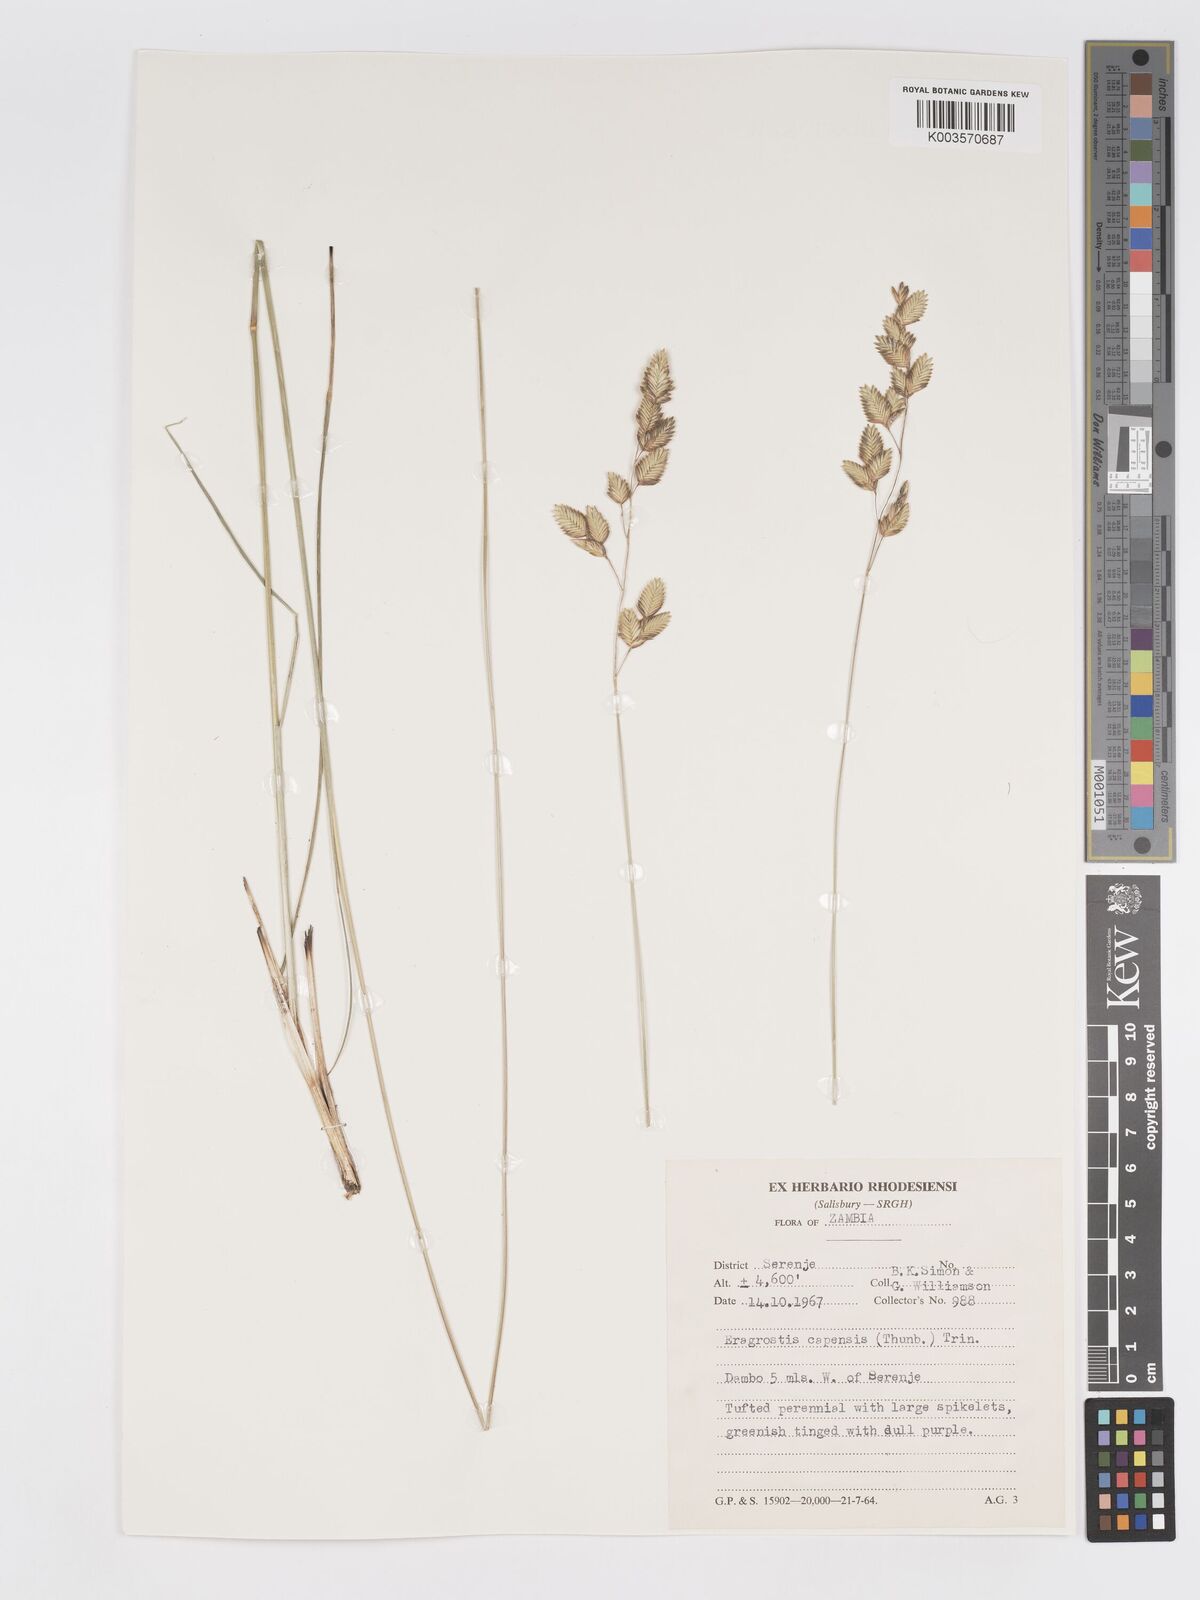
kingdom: Plantae
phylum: Tracheophyta
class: Liliopsida
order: Poales
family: Poaceae
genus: Eragrostis
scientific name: Eragrostis capensis
